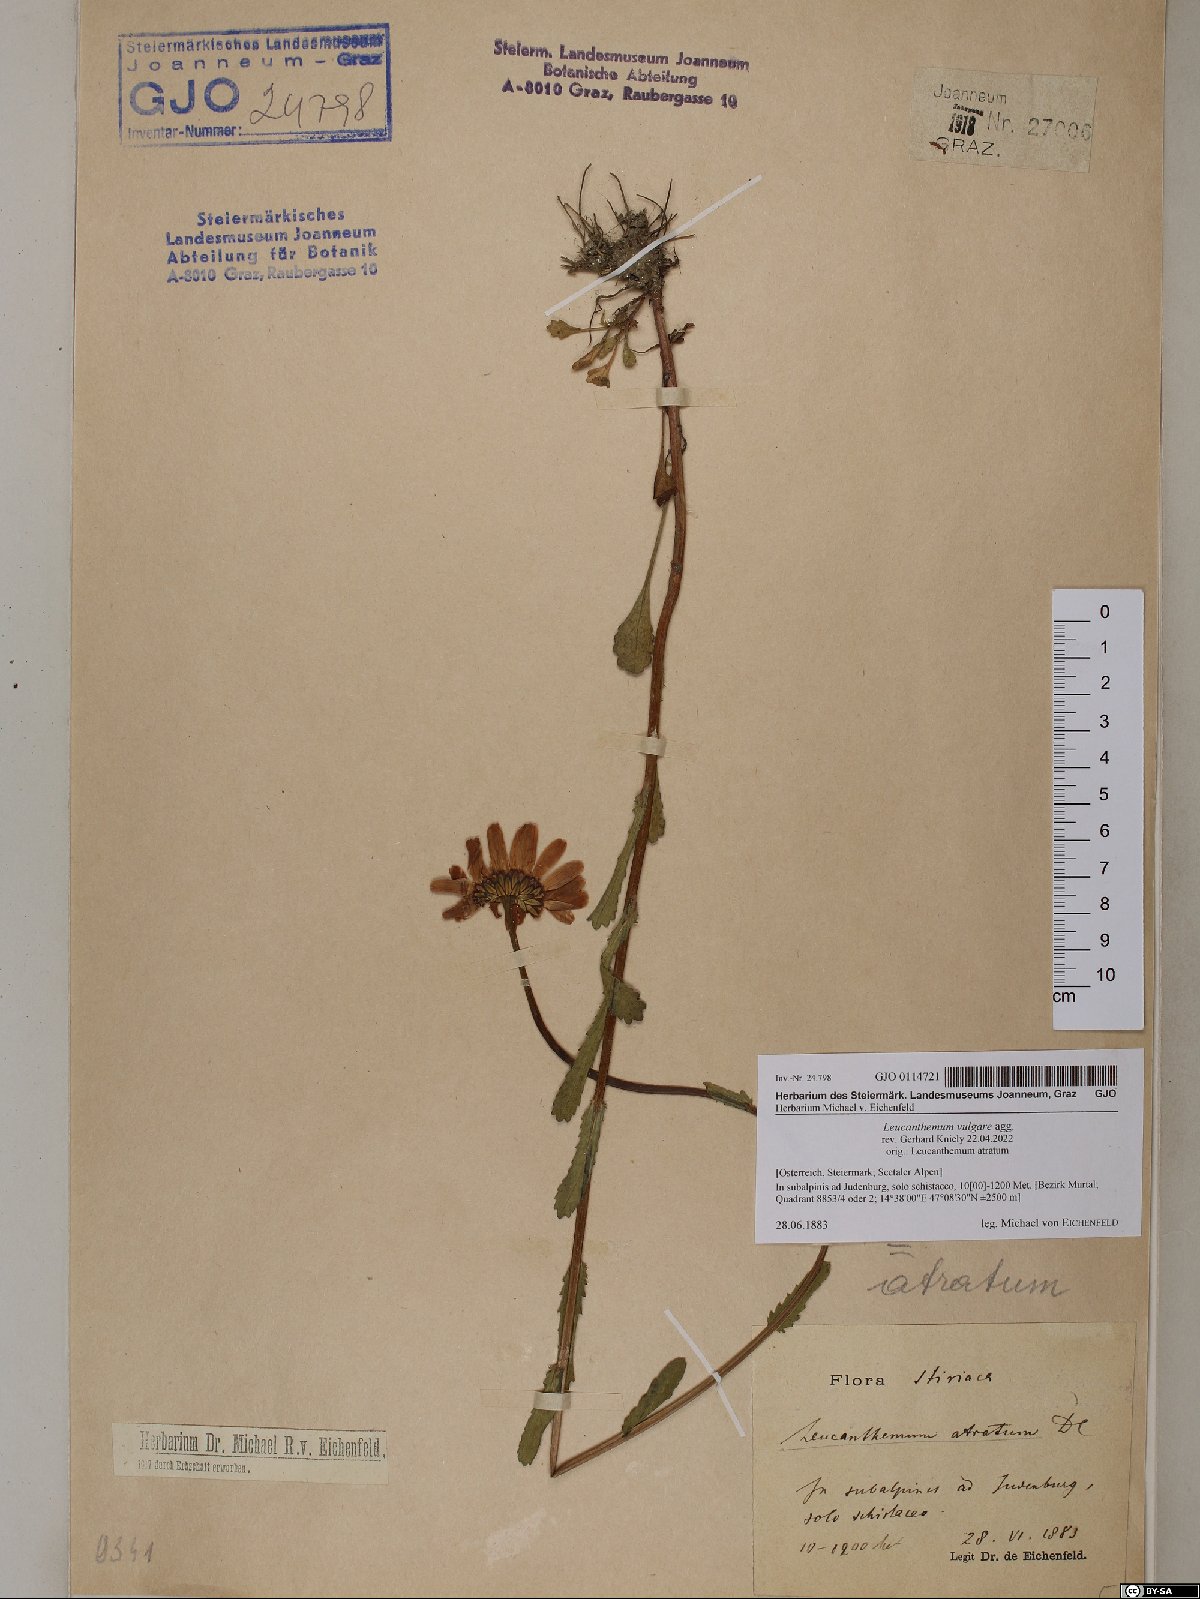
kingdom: Plantae
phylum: Tracheophyta
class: Magnoliopsida
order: Asterales
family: Asteraceae
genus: Leucanthemum
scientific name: Leucanthemum vulgare
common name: Oxeye daisy
